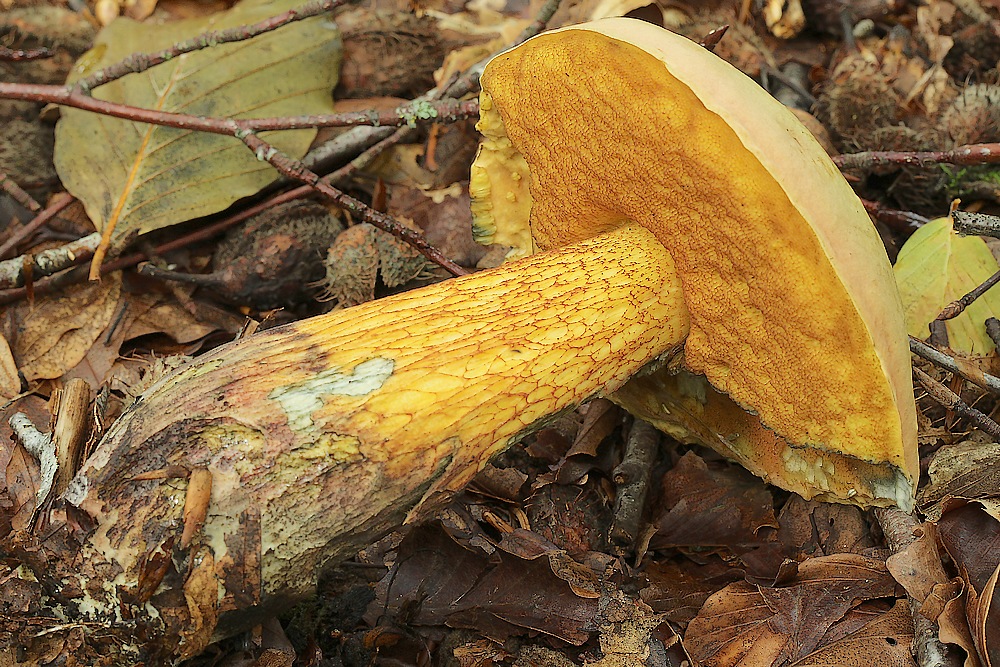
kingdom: Fungi
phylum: Basidiomycota
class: Agaricomycetes
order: Boletales
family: Boletaceae
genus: Suillellus
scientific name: Suillellus luridus
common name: netstokket indigorørhat
